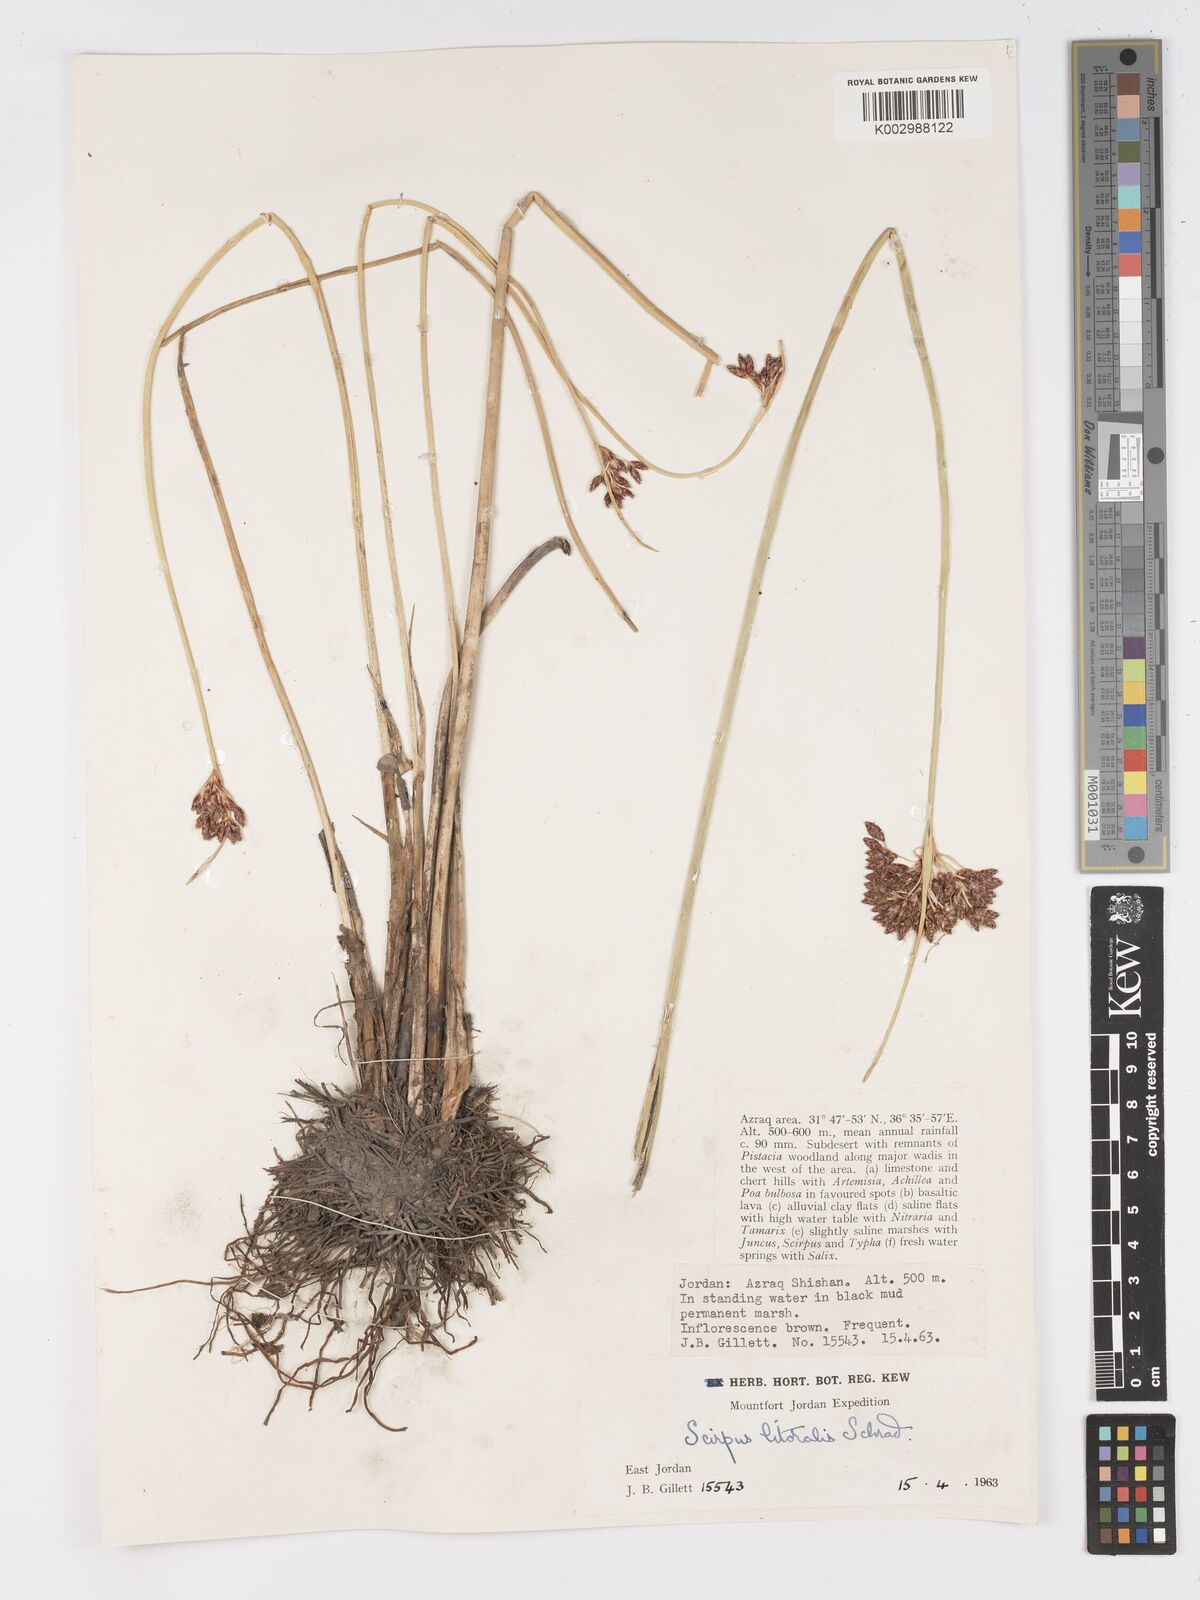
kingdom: Plantae
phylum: Tracheophyta
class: Liliopsida
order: Poales
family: Cyperaceae
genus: Schoenoplectus
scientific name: Schoenoplectus litoralis
